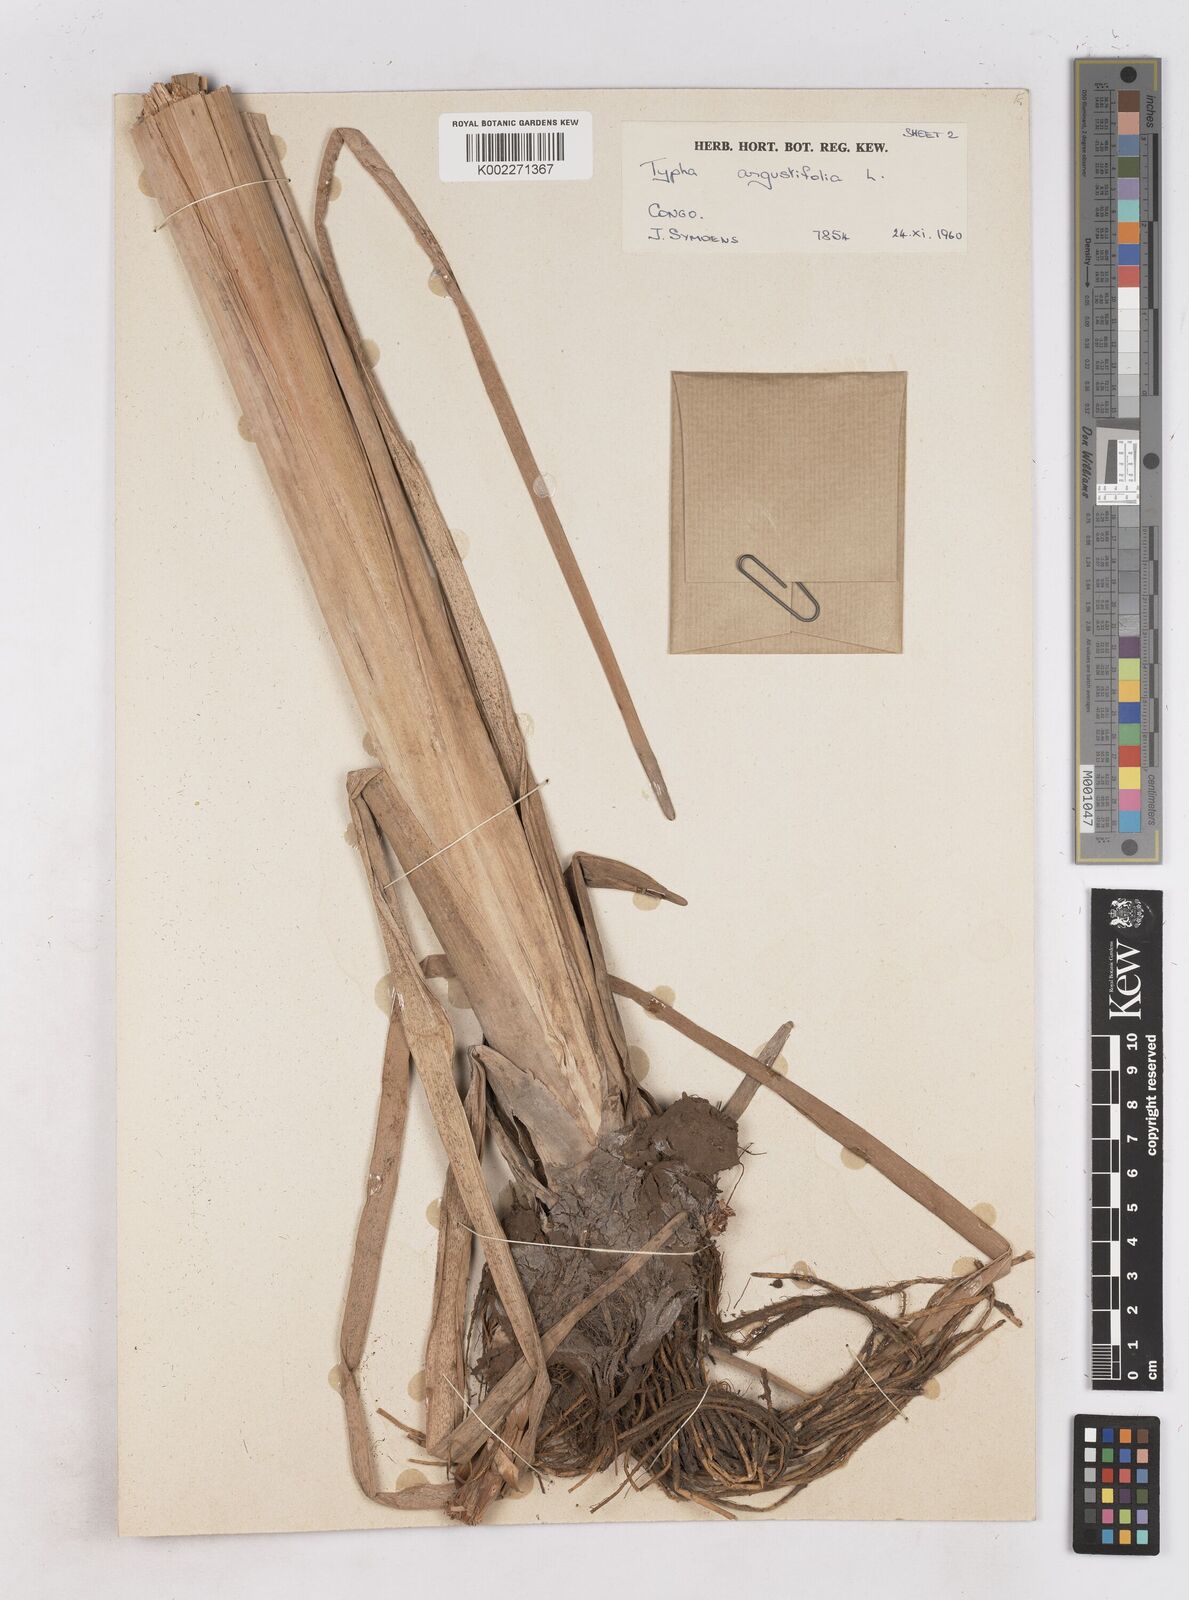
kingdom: Plantae
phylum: Tracheophyta
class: Liliopsida
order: Poales
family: Typhaceae
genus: Typha
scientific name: Typha capensis
